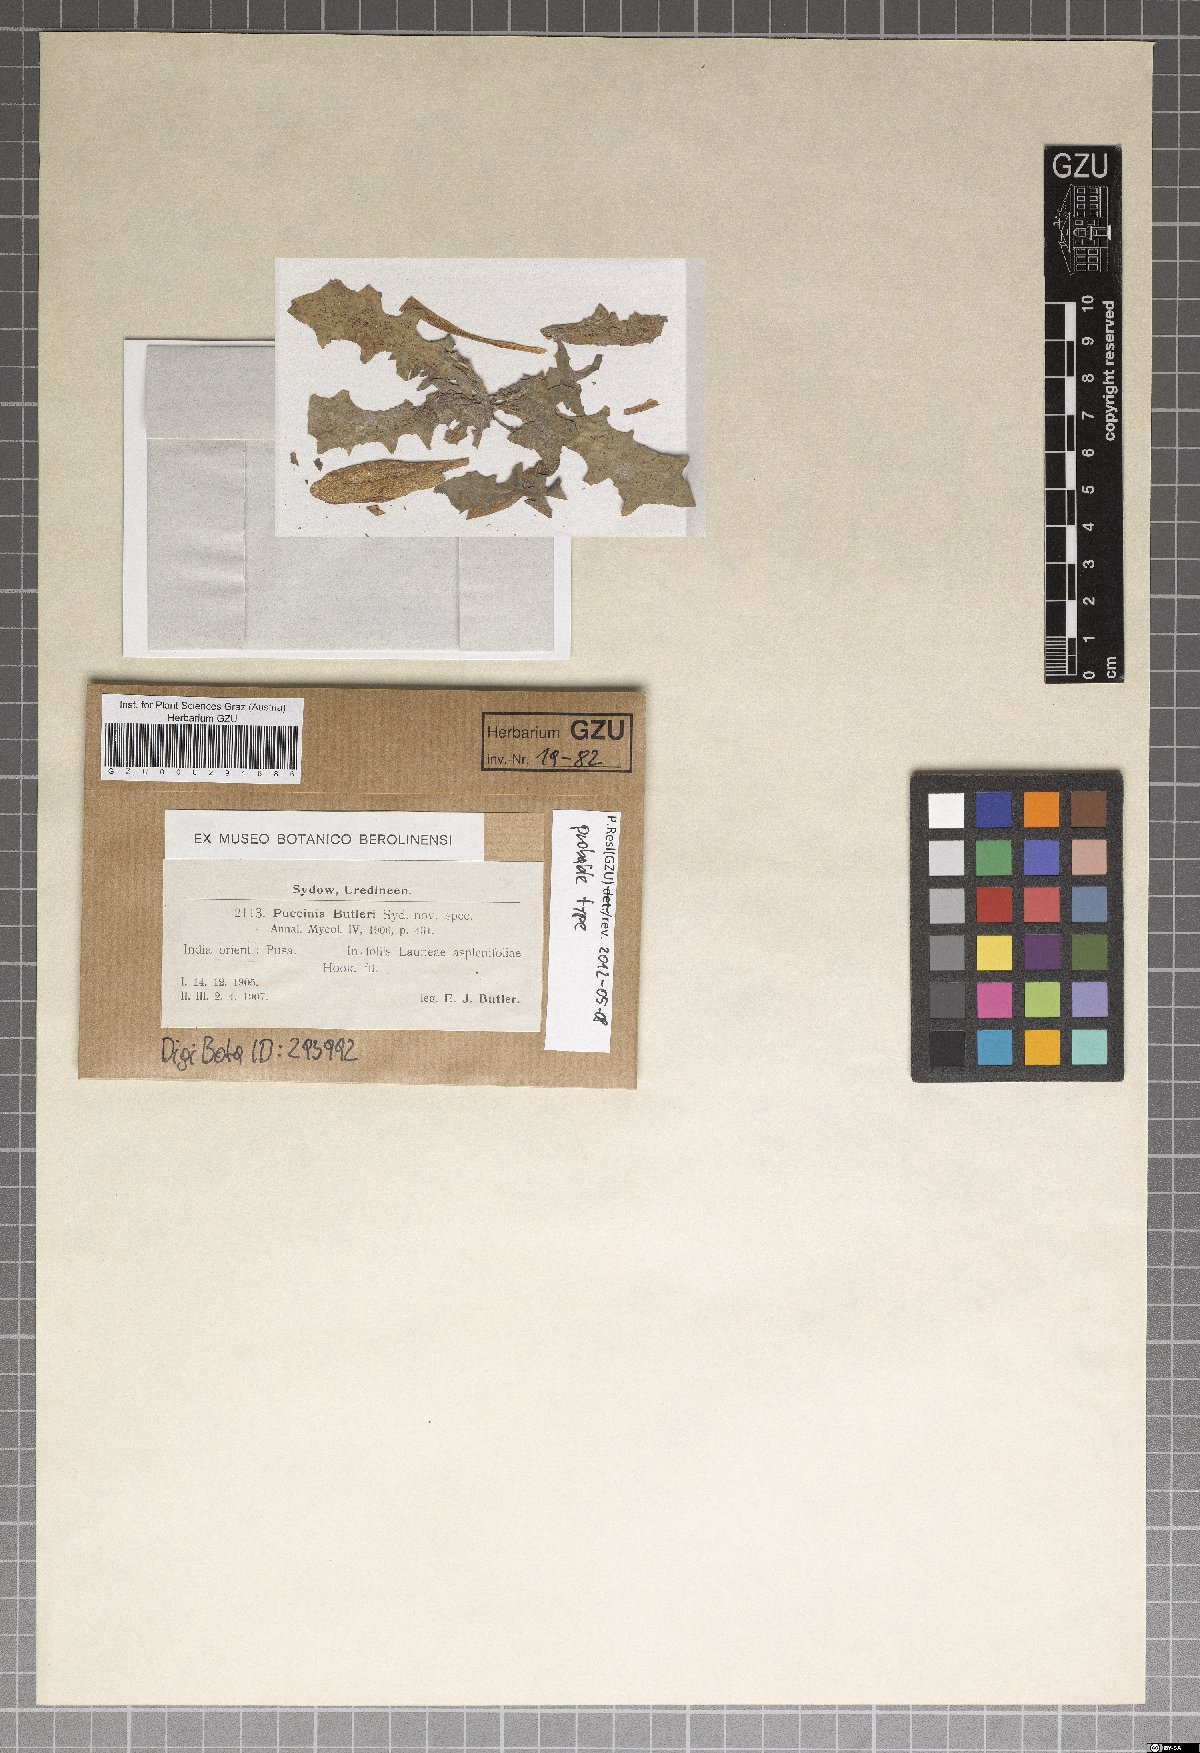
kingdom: Fungi
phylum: Basidiomycota
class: Pucciniomycetes
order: Pucciniales
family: Pucciniaceae
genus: Puccinia
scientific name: Puccinia butleri
